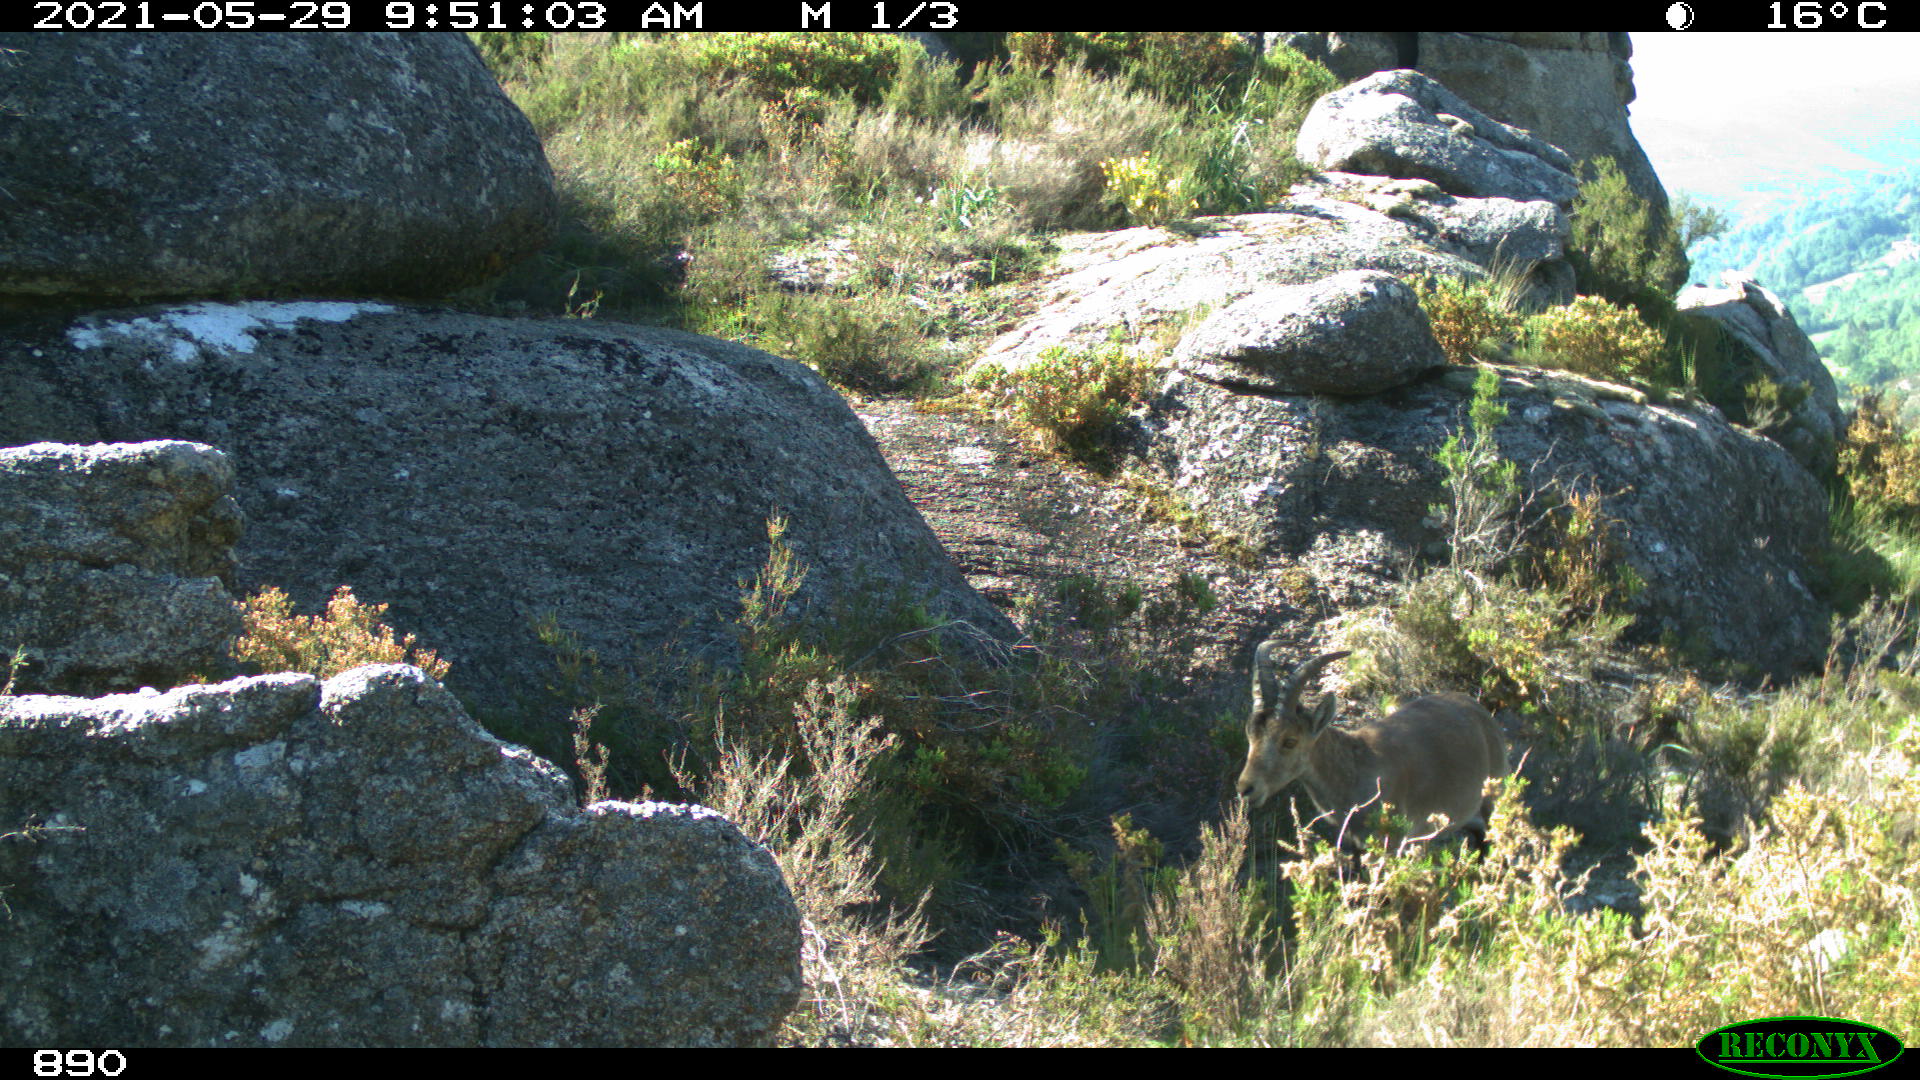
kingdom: Animalia
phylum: Chordata
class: Mammalia
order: Artiodactyla
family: Bovidae
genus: Capra
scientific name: Capra pyrenaica
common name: Spanish ibex
